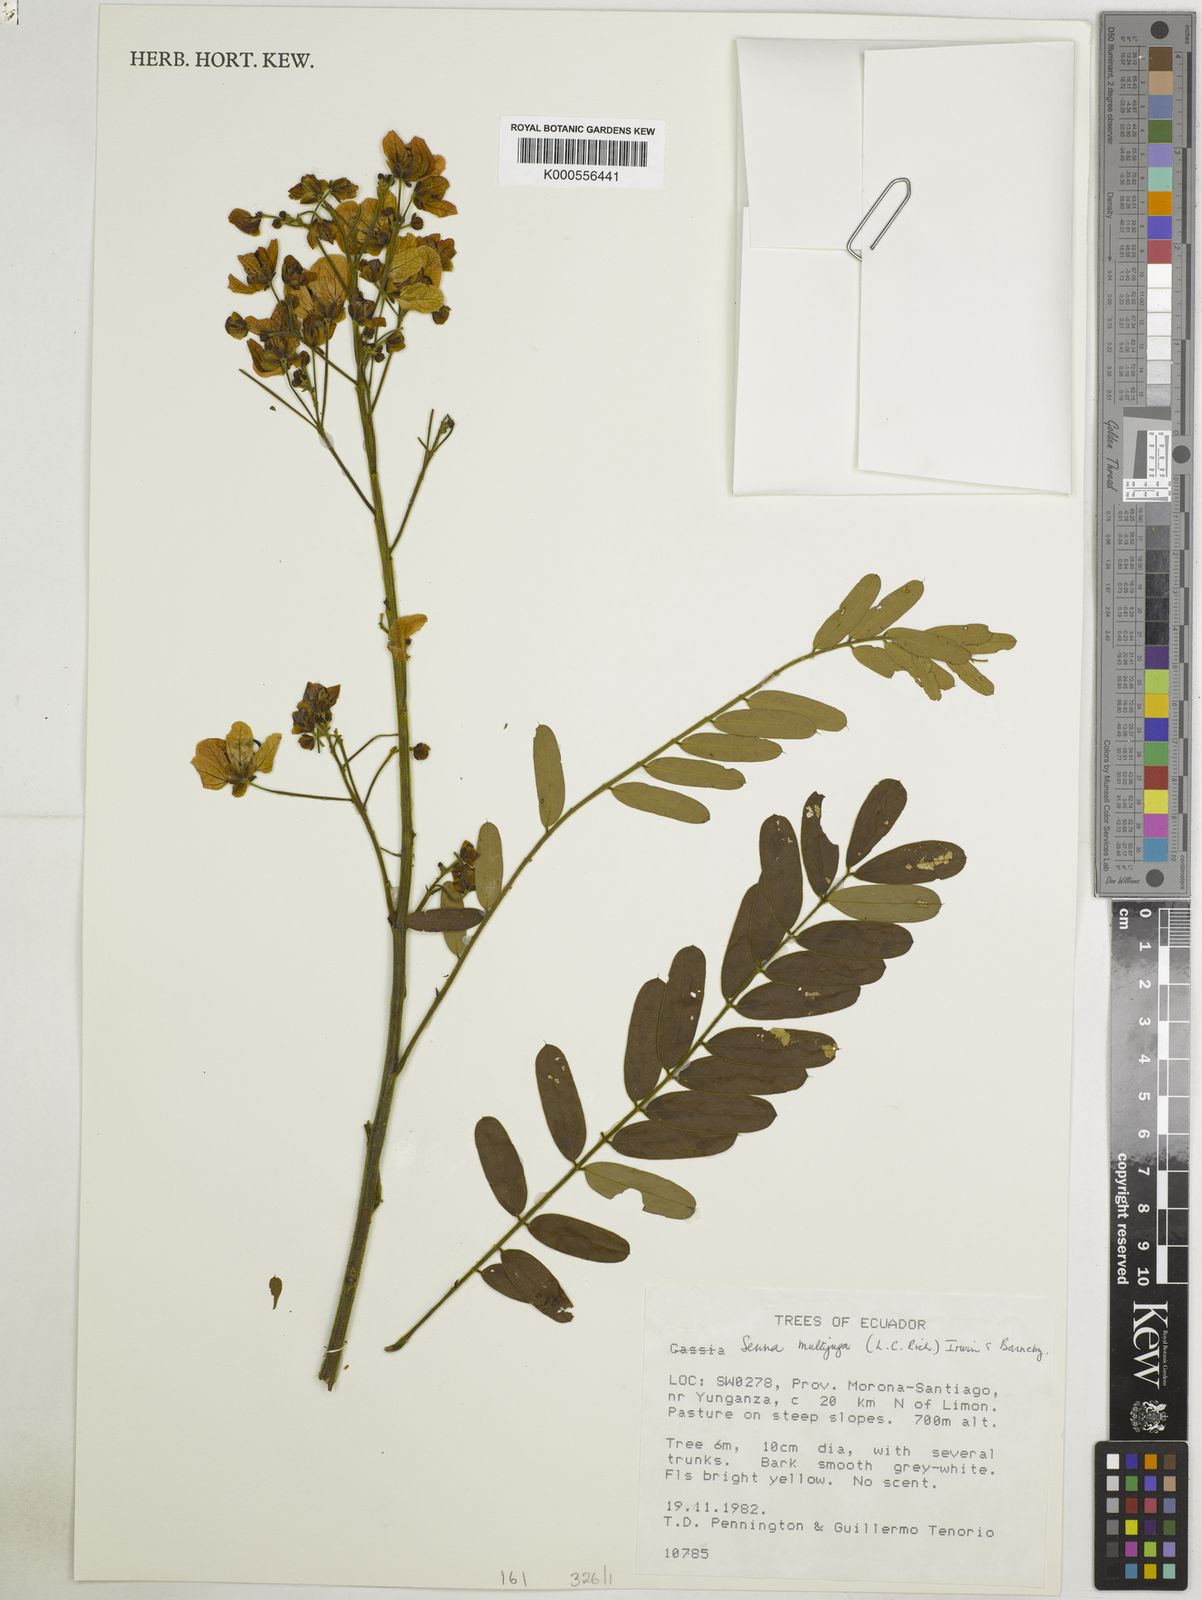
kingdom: Plantae
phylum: Tracheophyta
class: Magnoliopsida
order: Fabales
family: Fabaceae
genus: Senna
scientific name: Senna multijuga
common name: False sicklepod
